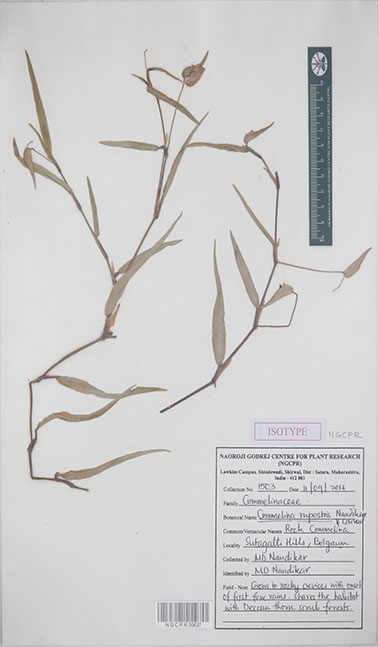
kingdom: Plantae
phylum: Tracheophyta
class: Liliopsida
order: Commelinales
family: Commelinaceae
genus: Commelina
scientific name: Commelina rupestris
